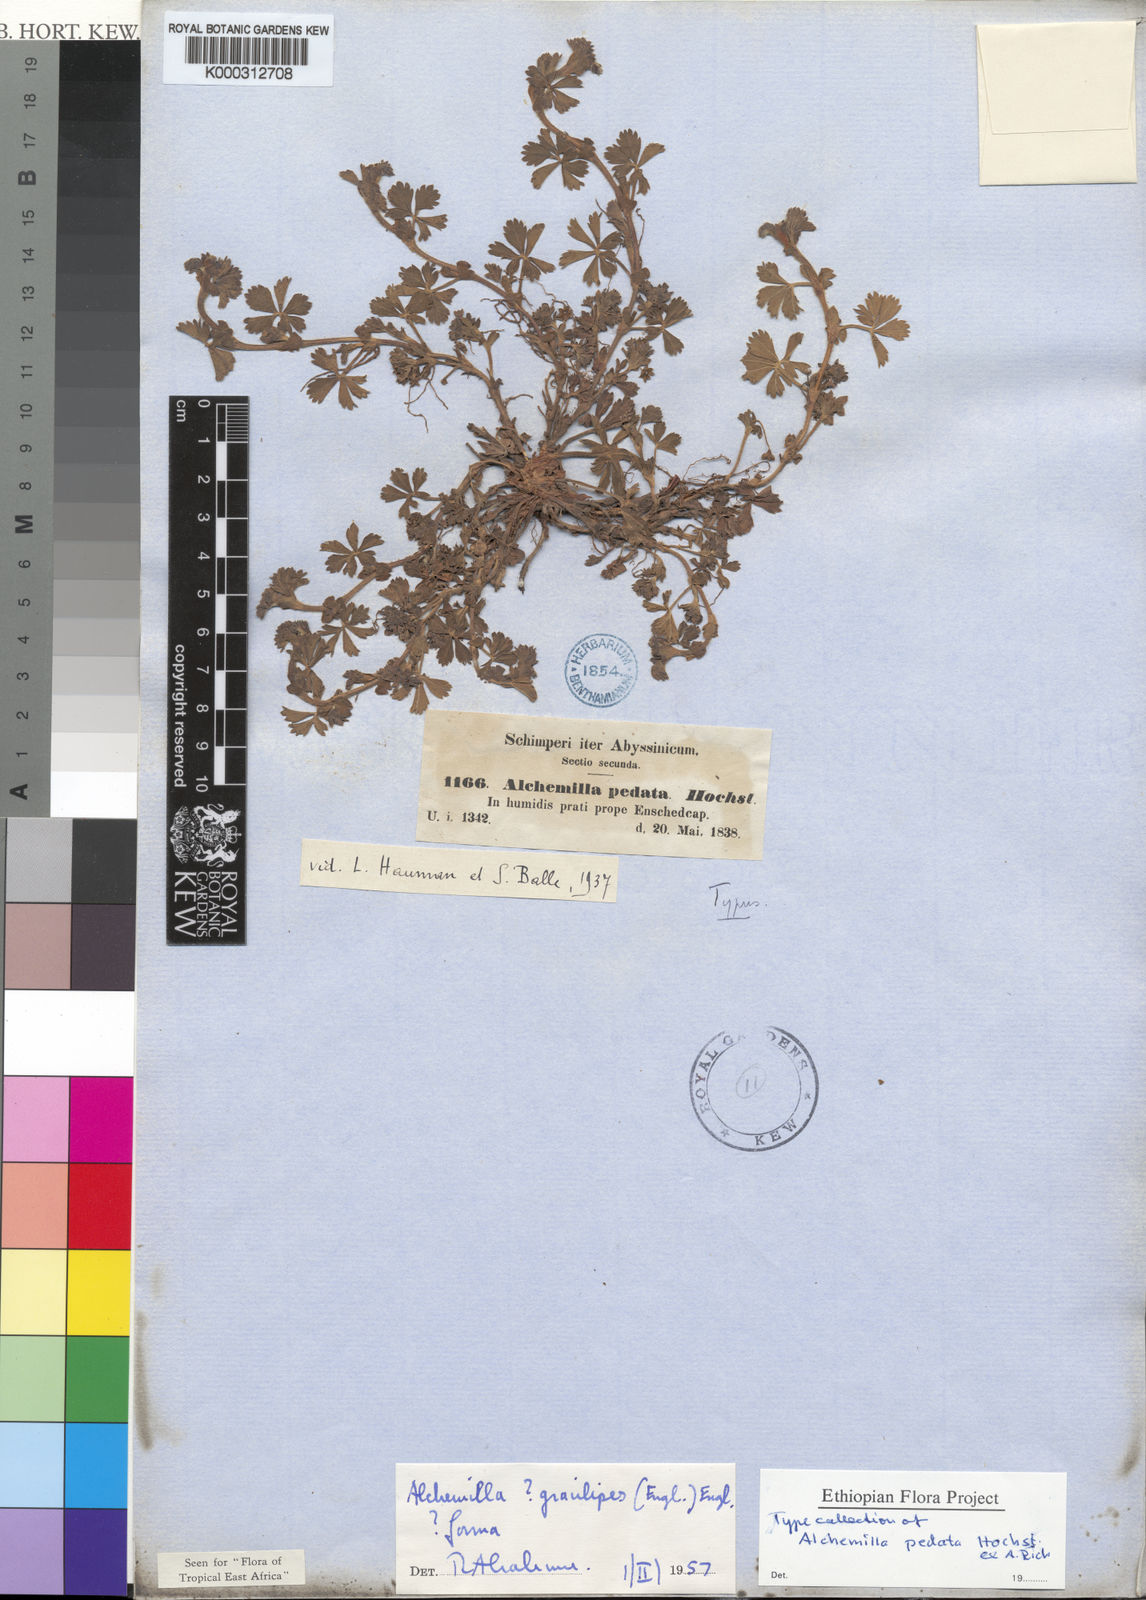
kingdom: Plantae
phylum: Tracheophyta
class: Magnoliopsida
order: Rosales
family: Rosaceae
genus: Alchemilla
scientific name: Alchemilla pedata
